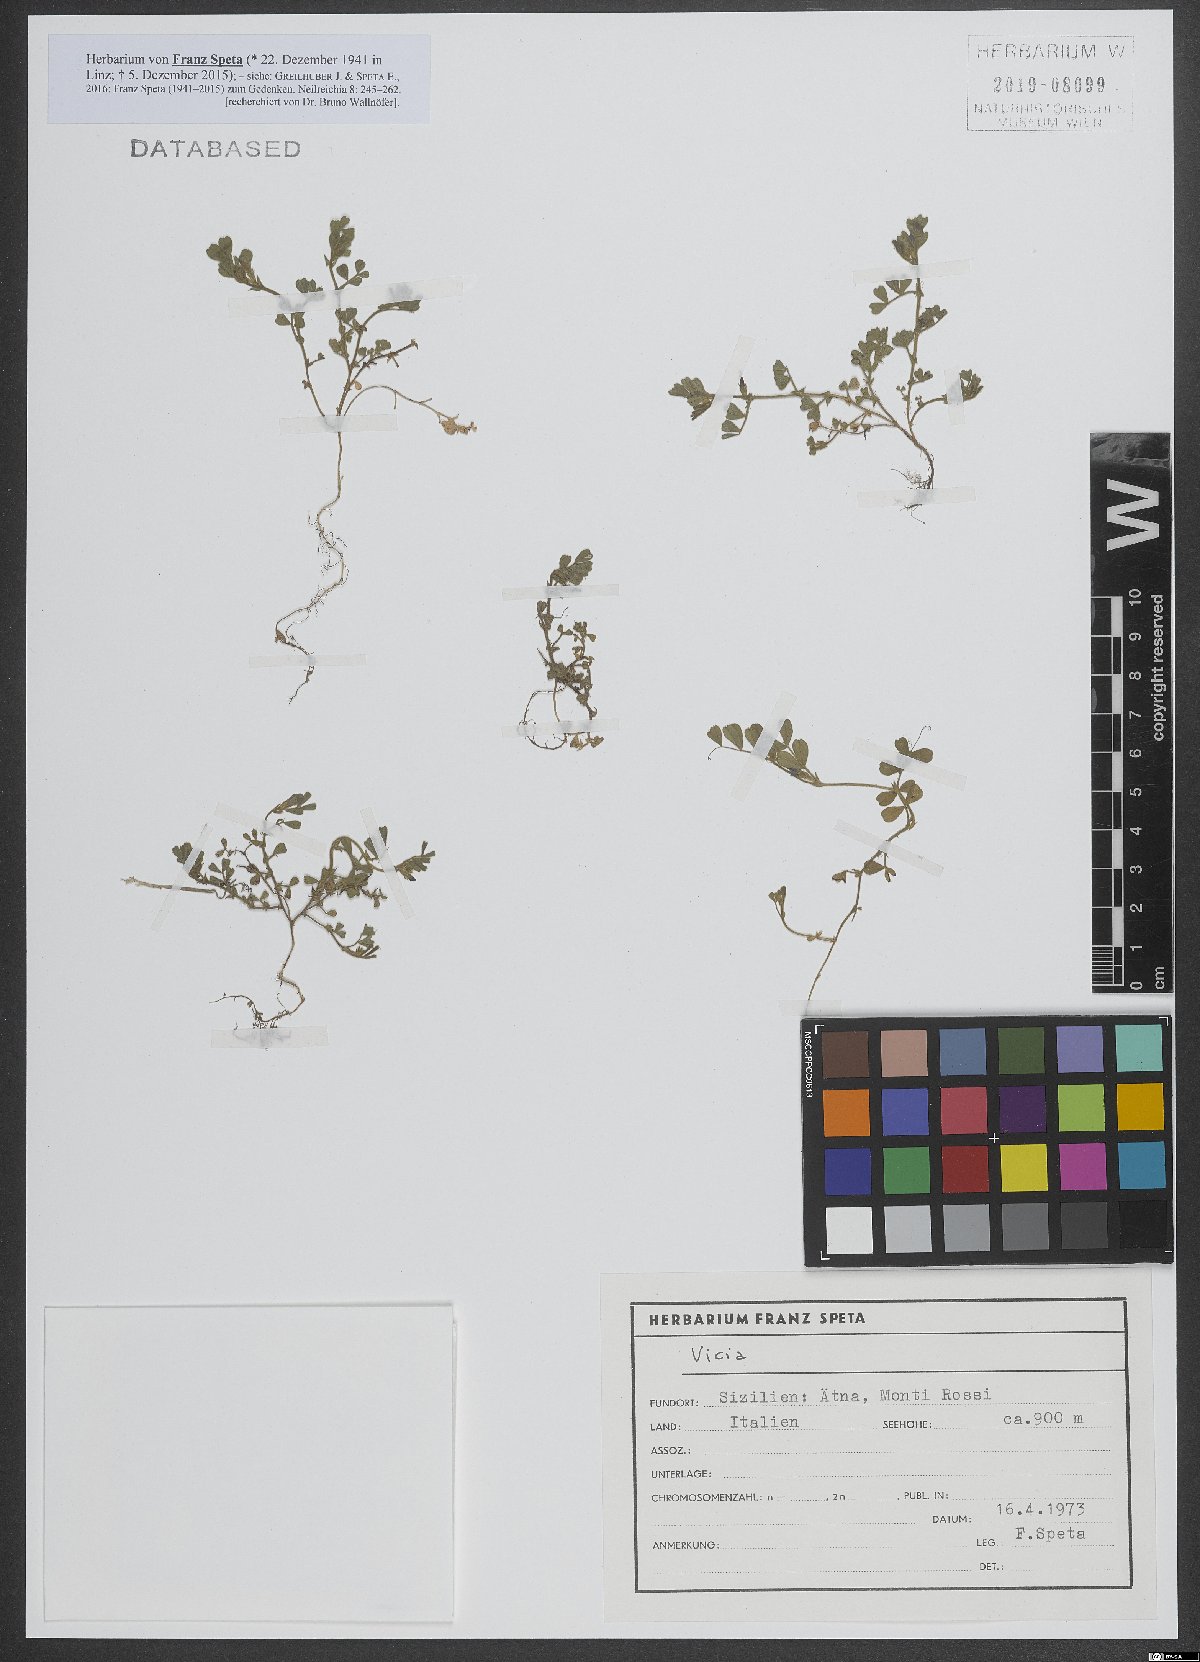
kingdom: Plantae
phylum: Tracheophyta
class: Magnoliopsida
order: Fabales
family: Fabaceae
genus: Vicia
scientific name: Vicia
